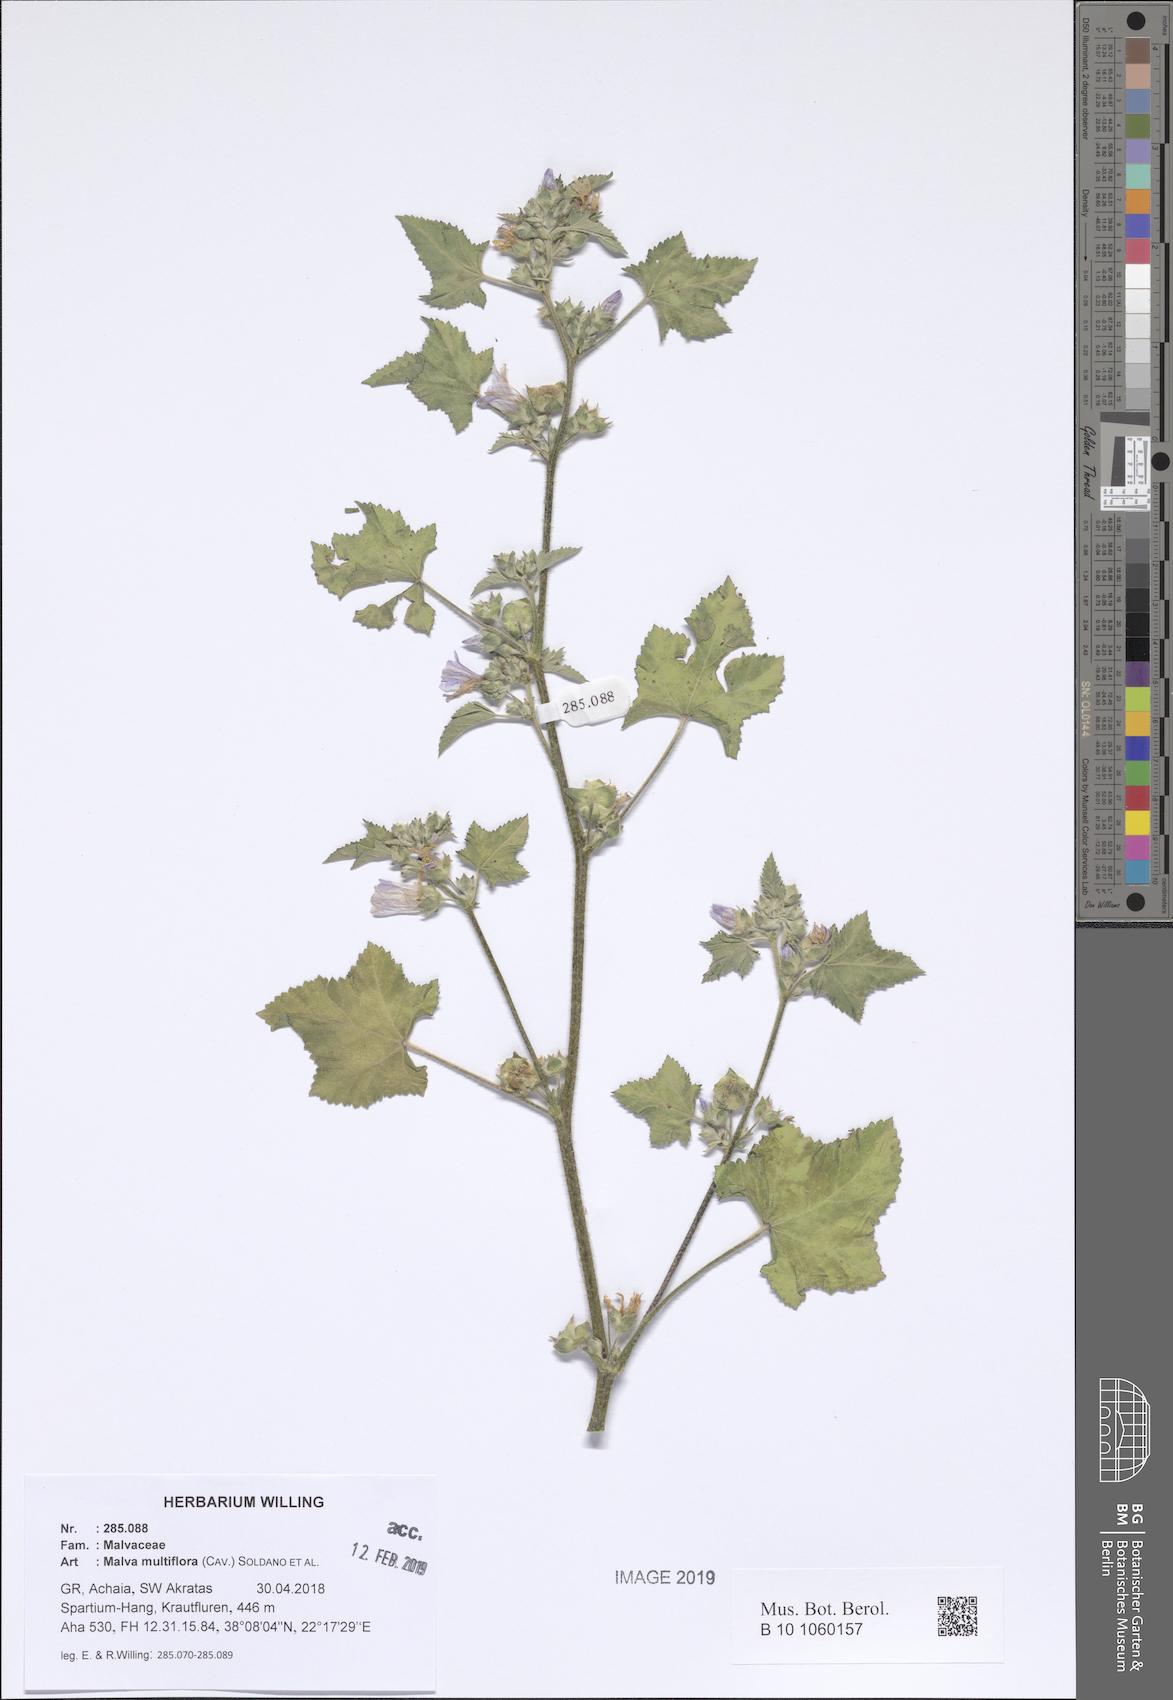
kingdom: Plantae
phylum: Tracheophyta
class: Magnoliopsida
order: Malvales
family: Malvaceae
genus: Malva
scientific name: Malva multiflora
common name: Cheeseweed
